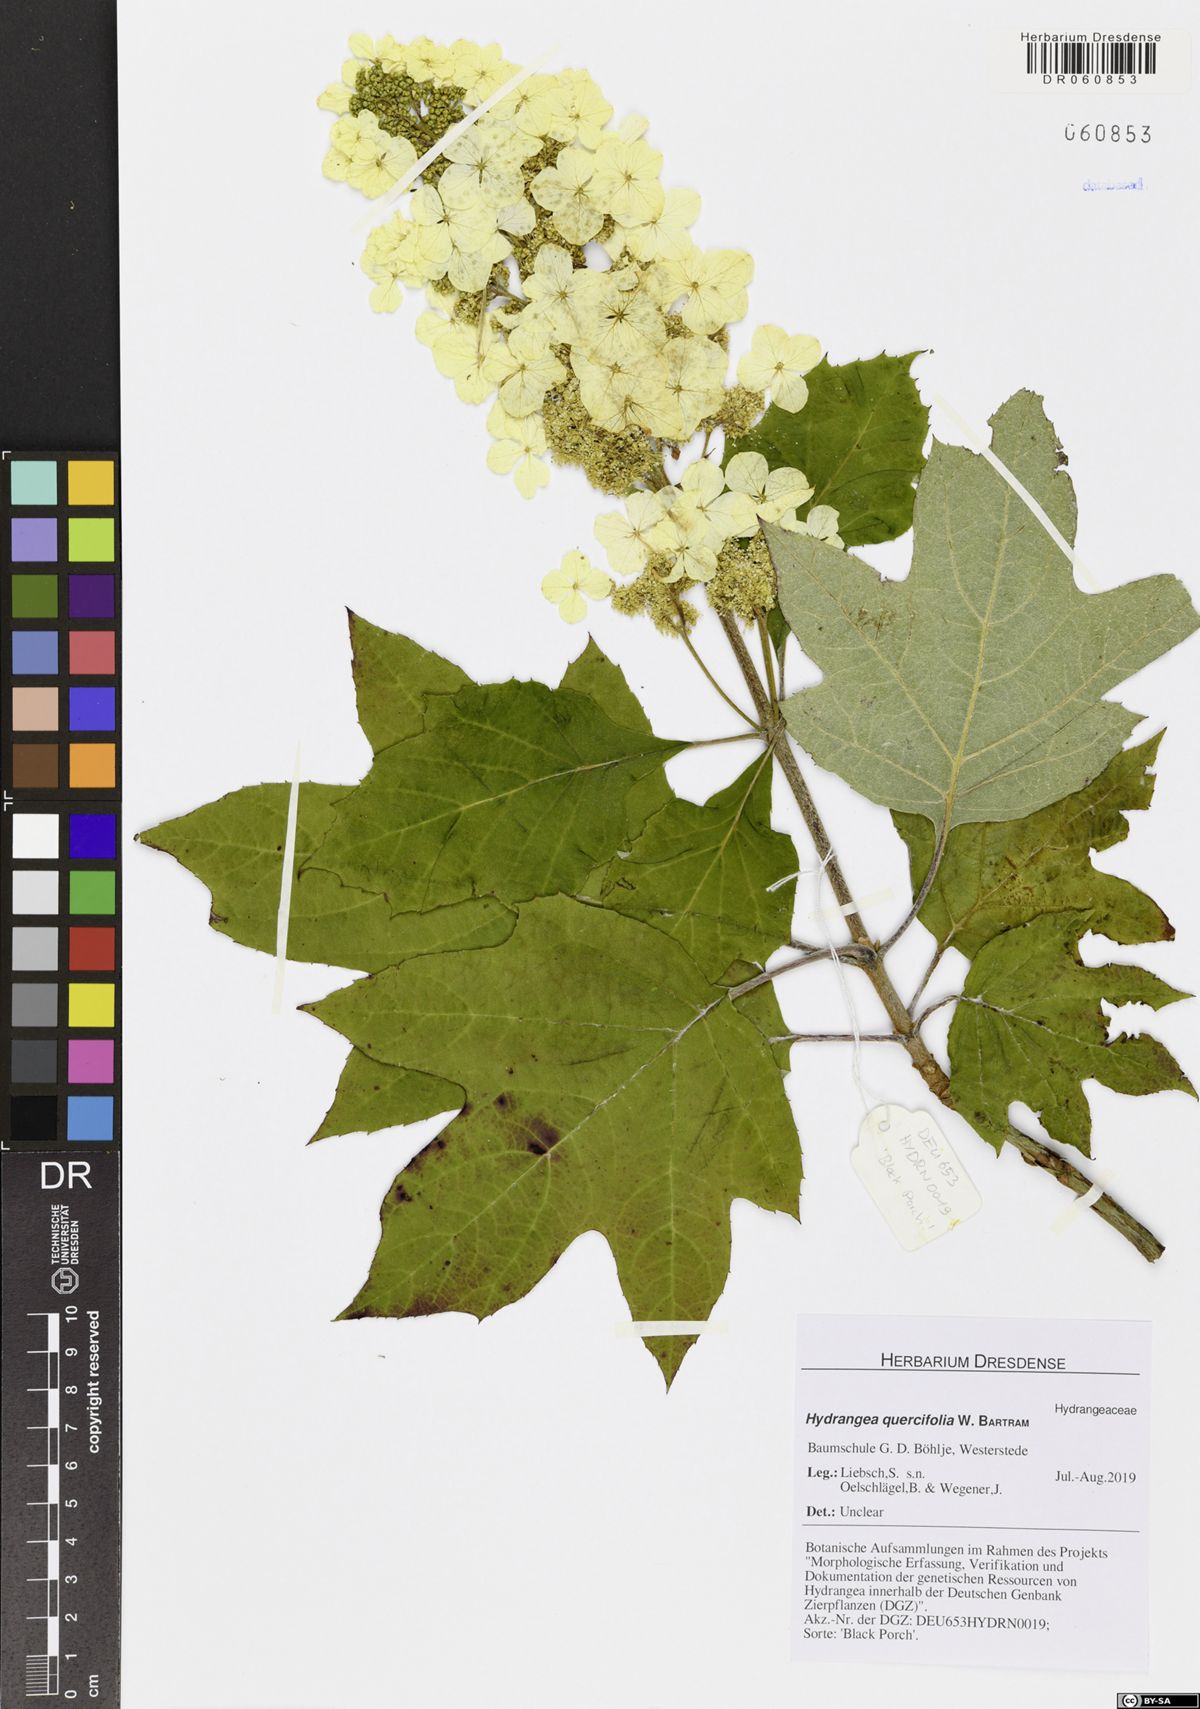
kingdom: Plantae
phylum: Tracheophyta
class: Magnoliopsida
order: Cornales
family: Hydrangeaceae
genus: Hydrangea
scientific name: Hydrangea quercifolia
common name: Oak-leaf hydrangea
